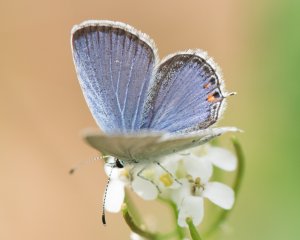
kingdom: Animalia
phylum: Arthropoda
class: Insecta
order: Lepidoptera
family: Lycaenidae
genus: Elkalyce
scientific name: Elkalyce comyntas
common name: Eastern Tailed-Blue
